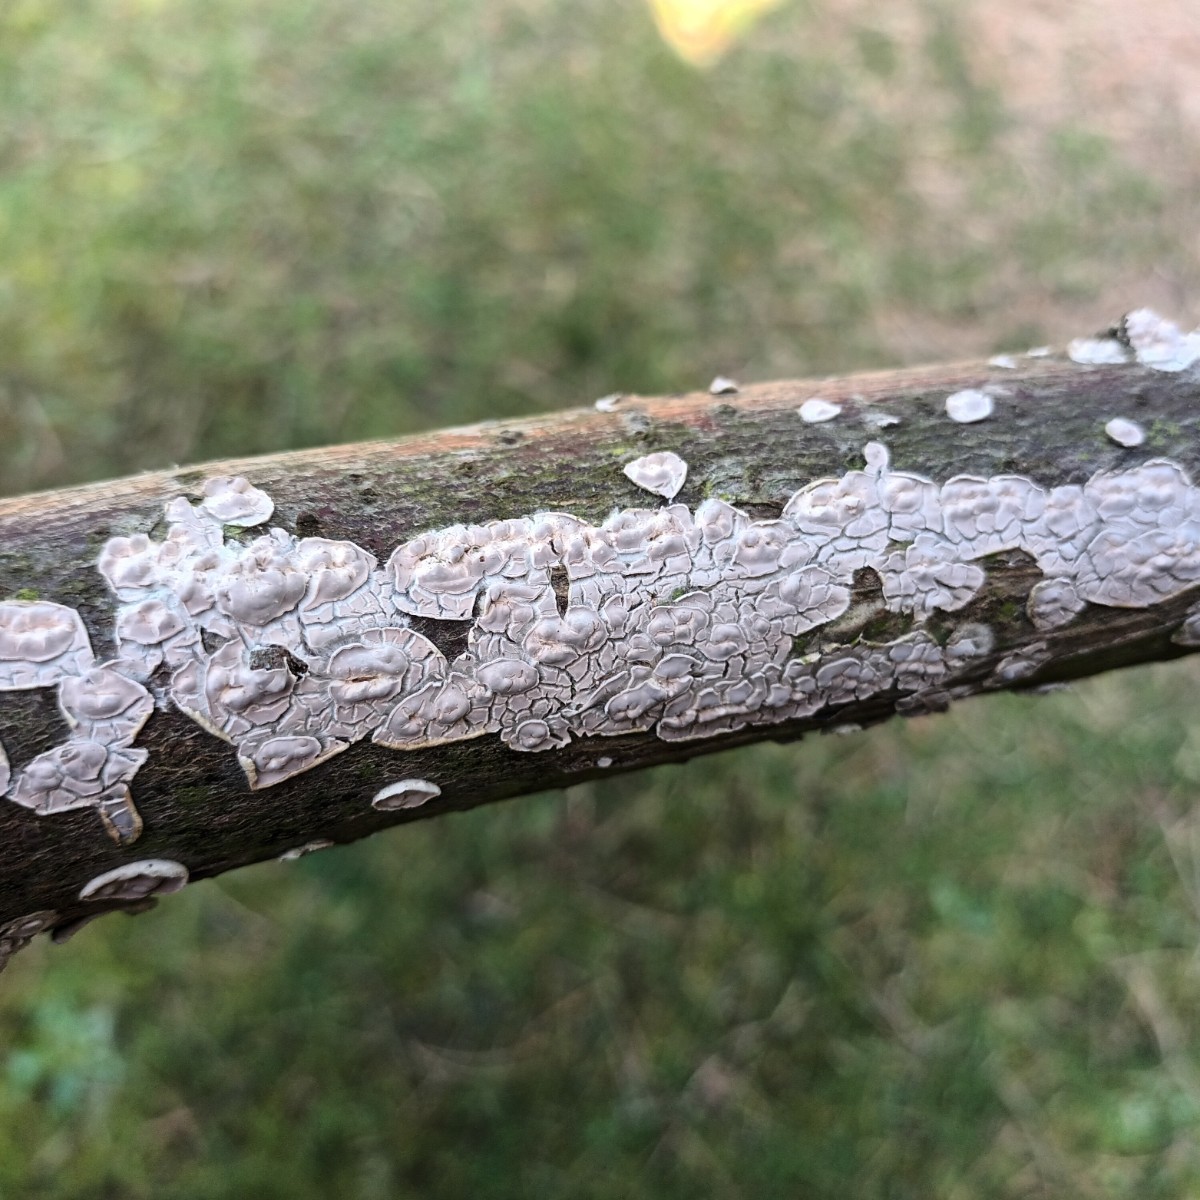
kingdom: Fungi
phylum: Basidiomycota
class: Agaricomycetes
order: Agaricales
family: Physalacriaceae
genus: Cylindrobasidium
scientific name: Cylindrobasidium evolvens
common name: sprækkehinde
